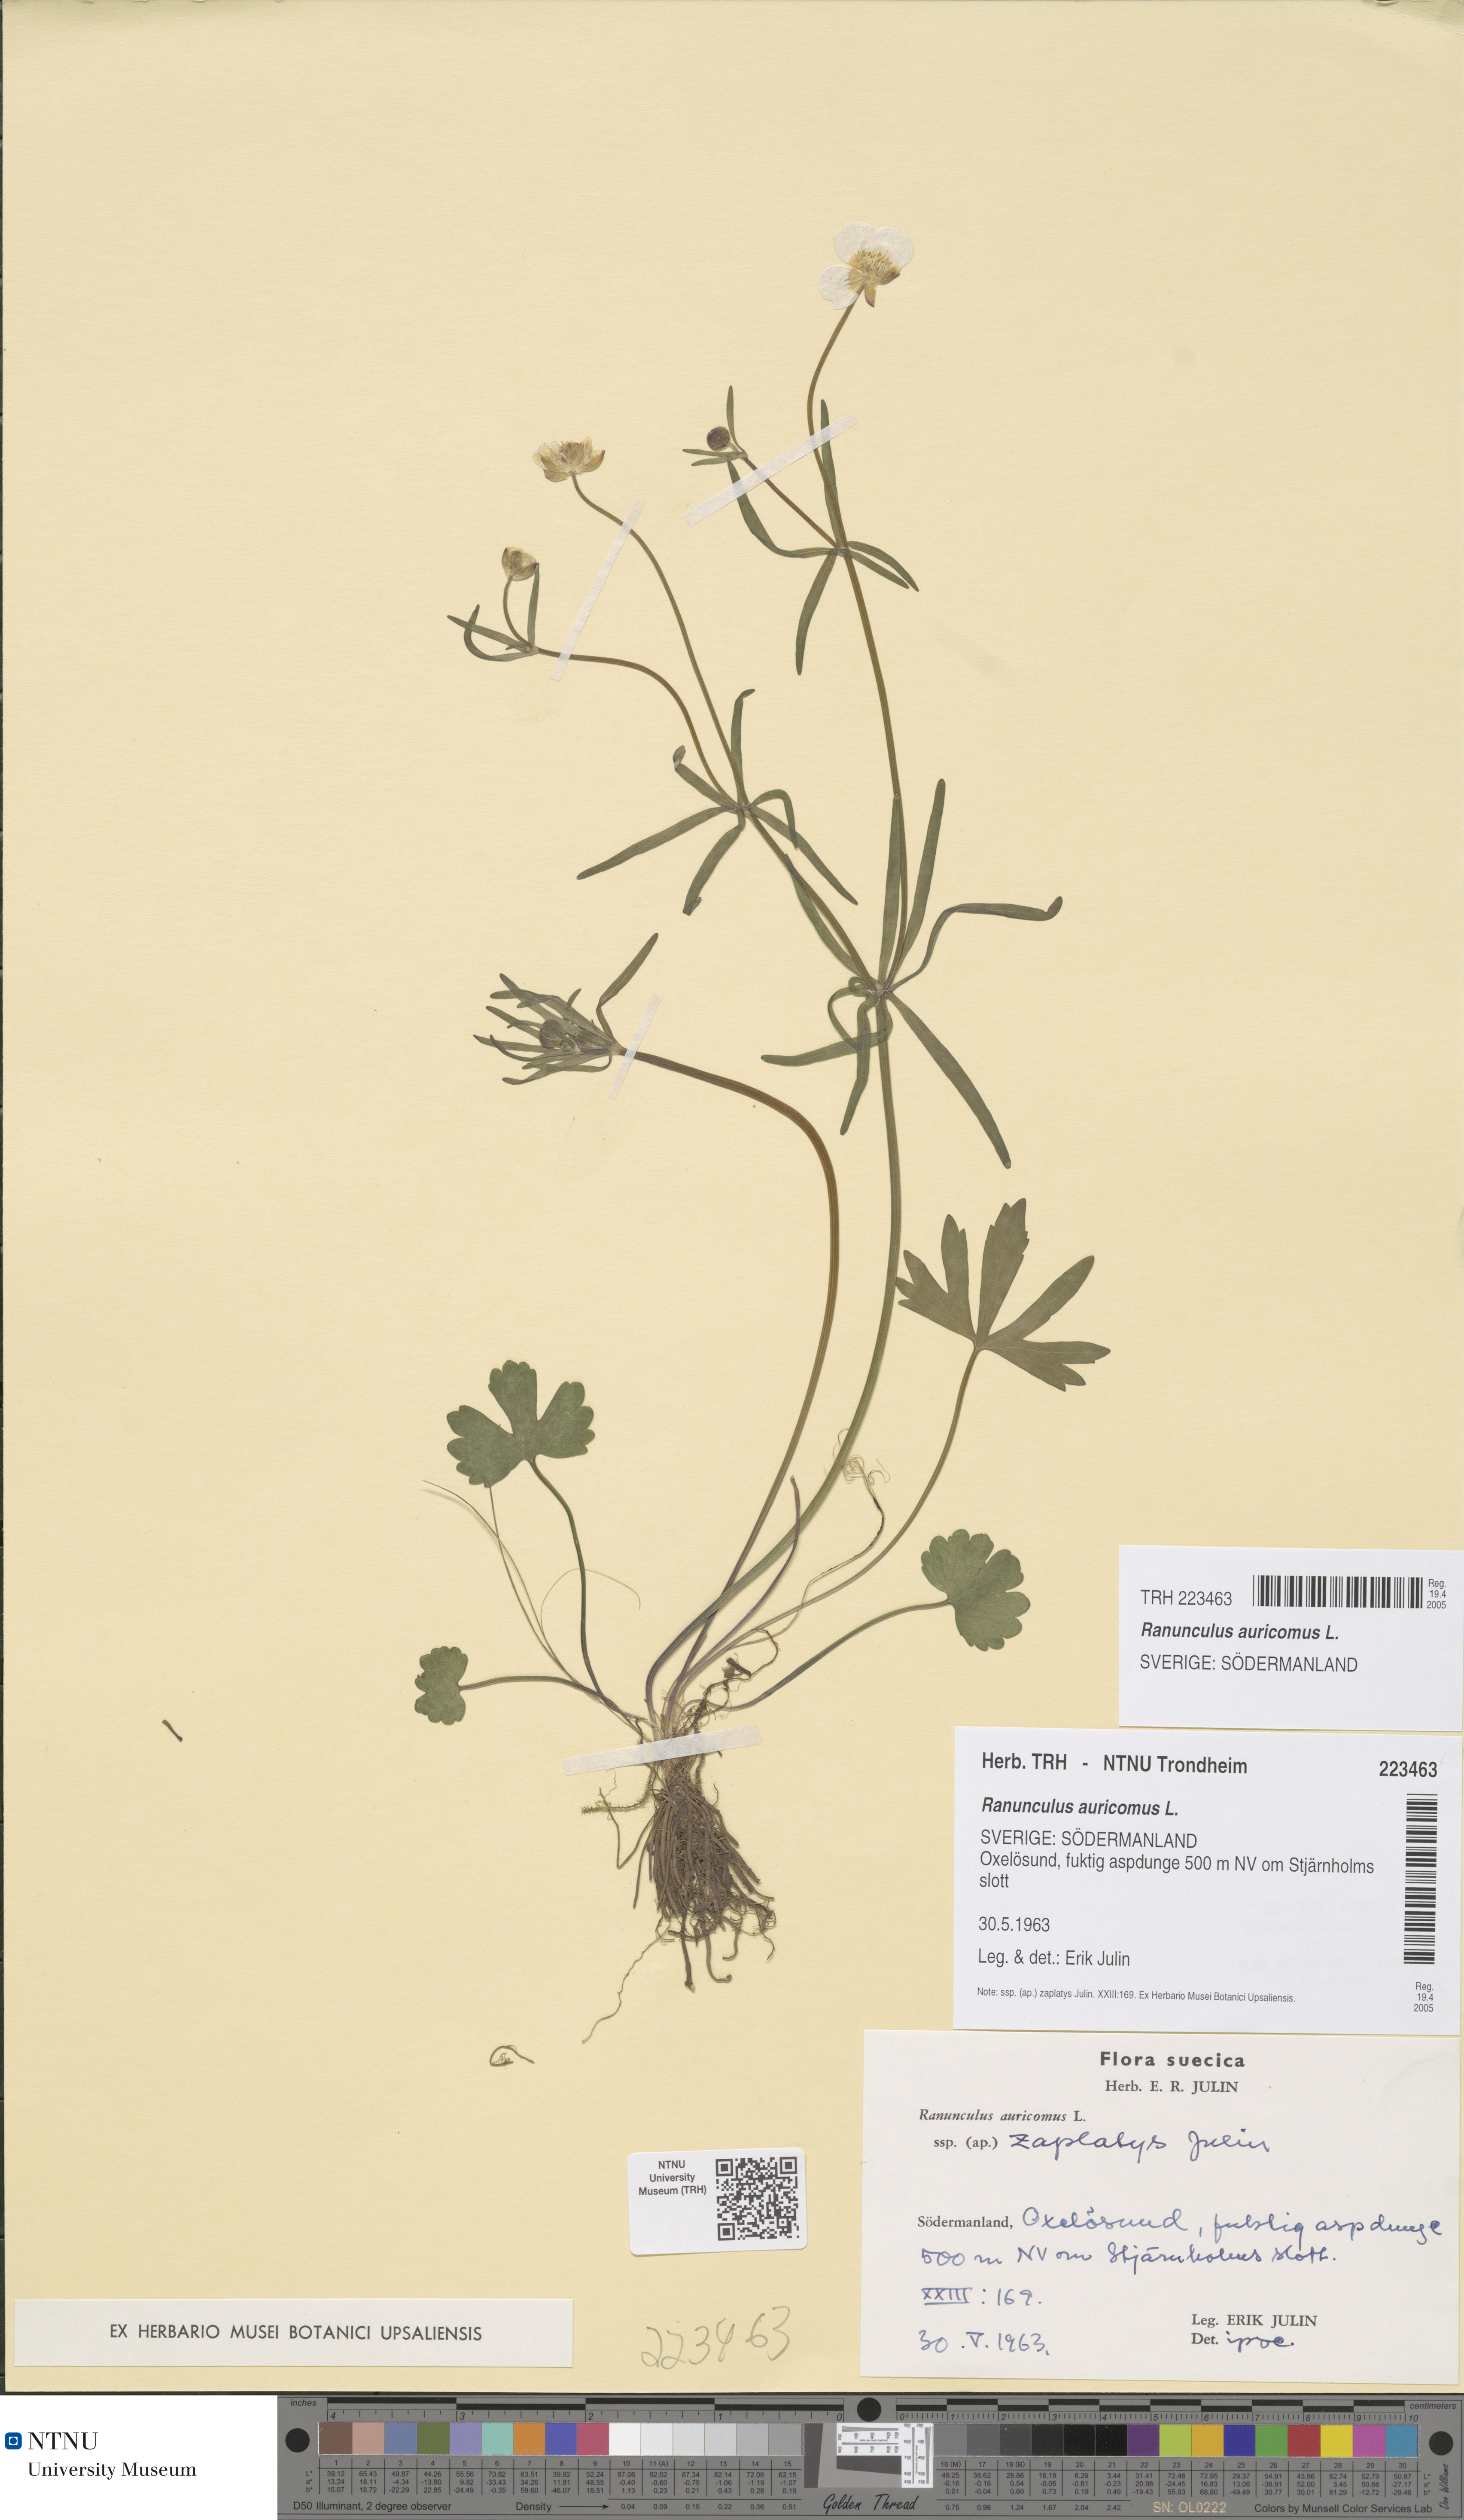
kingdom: Plantae
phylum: Tracheophyta
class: Magnoliopsida
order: Ranunculales
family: Ranunculaceae
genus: Ranunculus
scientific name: Ranunculus auricomus
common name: Goldilocks buttercup
